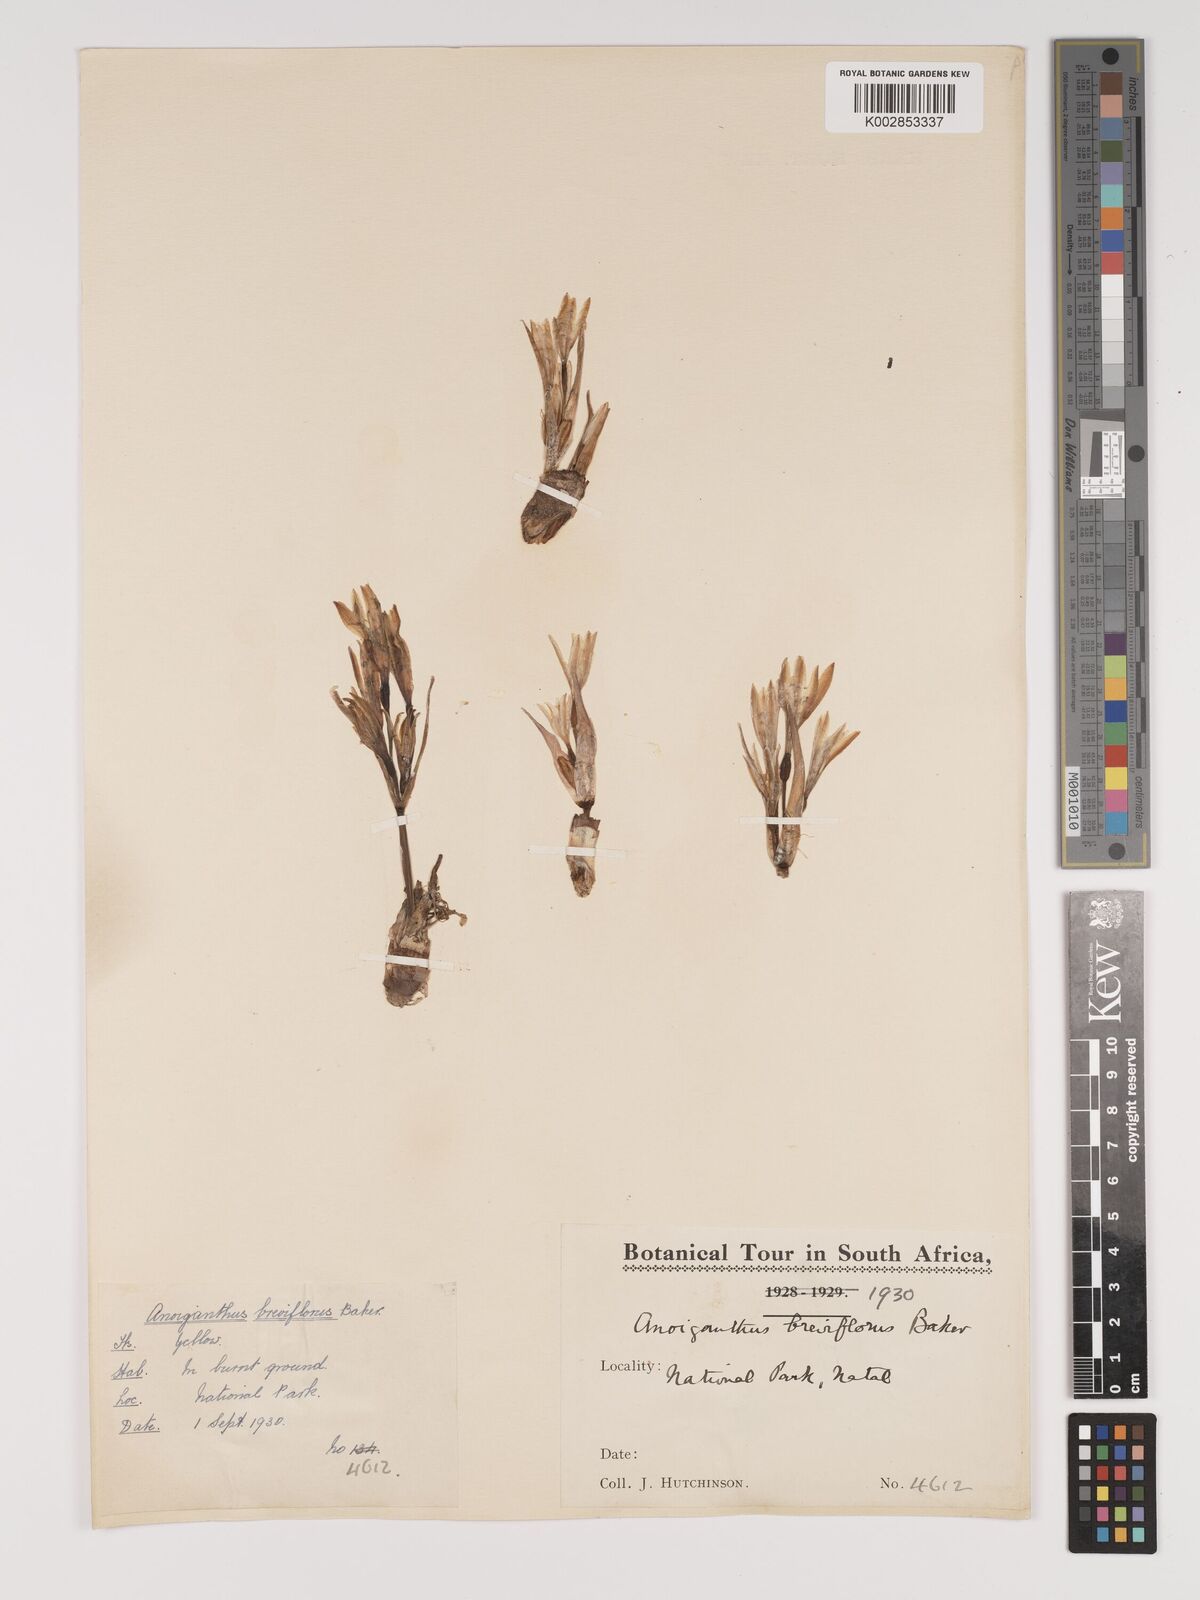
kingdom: Plantae
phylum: Tracheophyta
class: Liliopsida
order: Asparagales
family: Amaryllidaceae
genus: Cyrtanthus
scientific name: Cyrtanthus breviflorus
